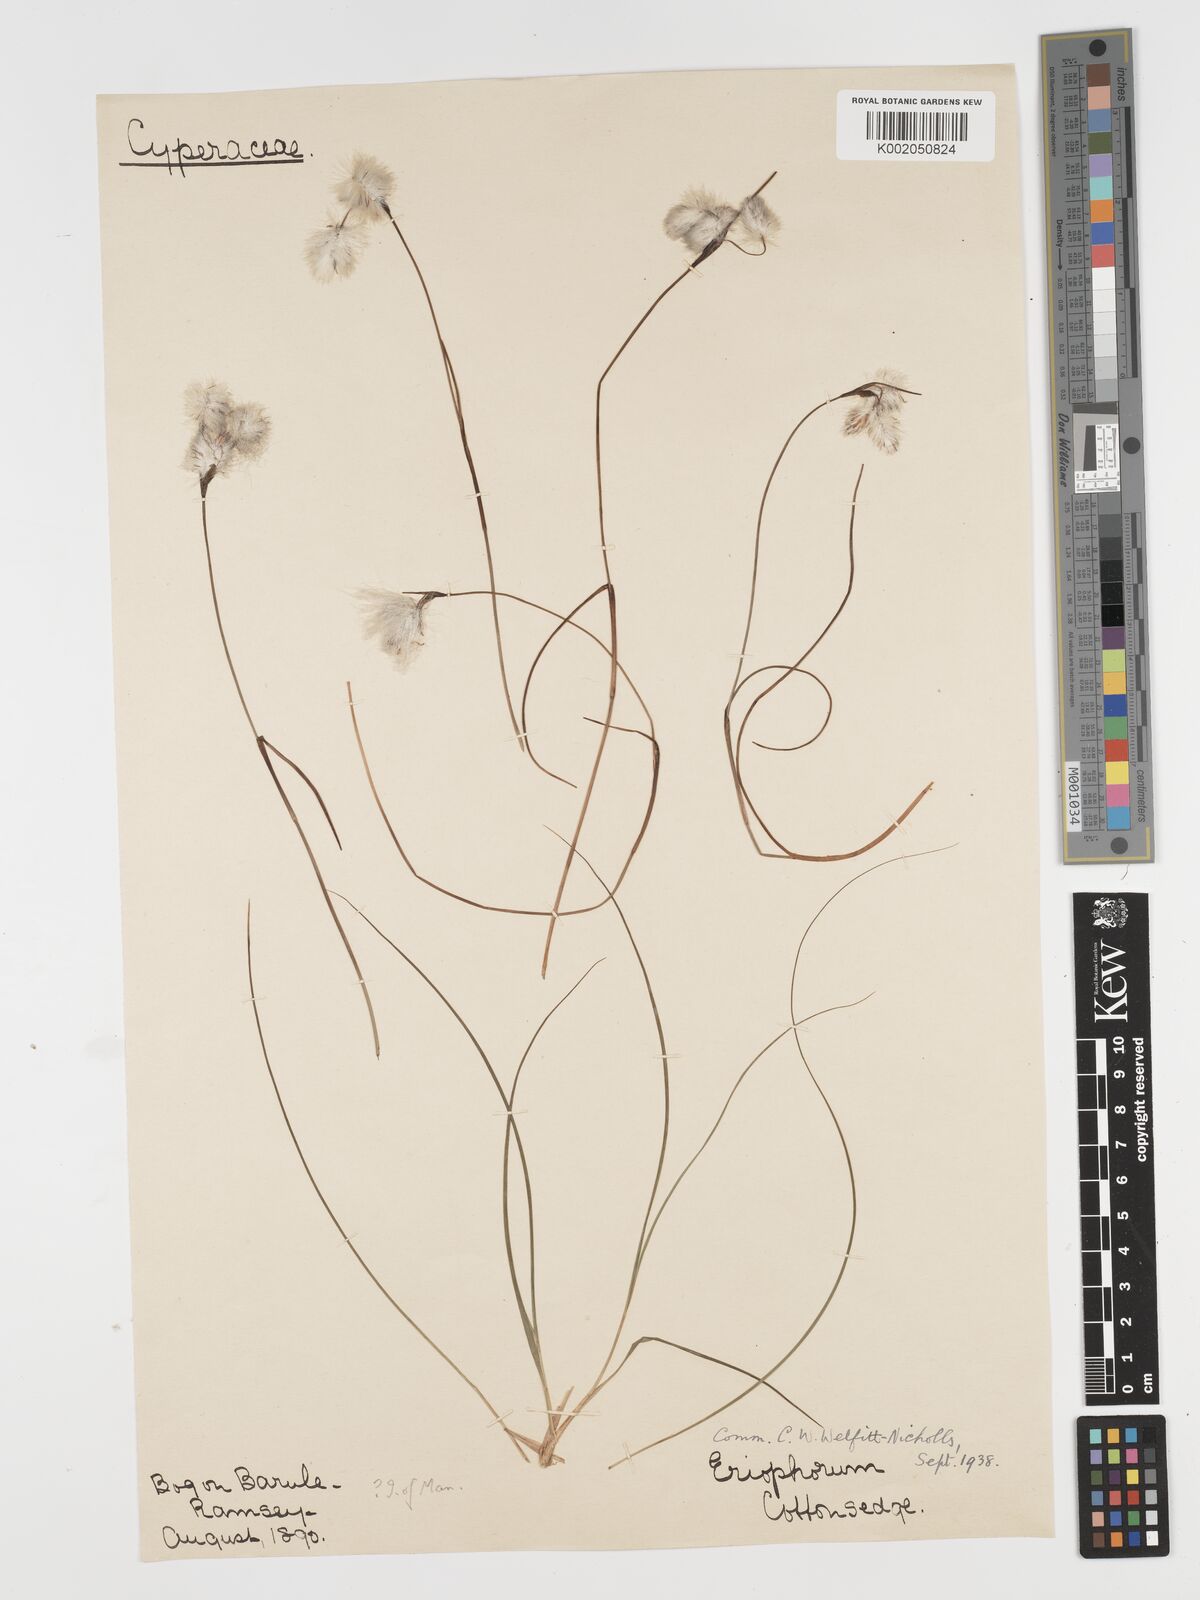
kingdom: Plantae
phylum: Tracheophyta
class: Liliopsida
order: Poales
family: Cyperaceae
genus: Eriophorum
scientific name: Eriophorum angustifolium
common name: Common cottongrass
